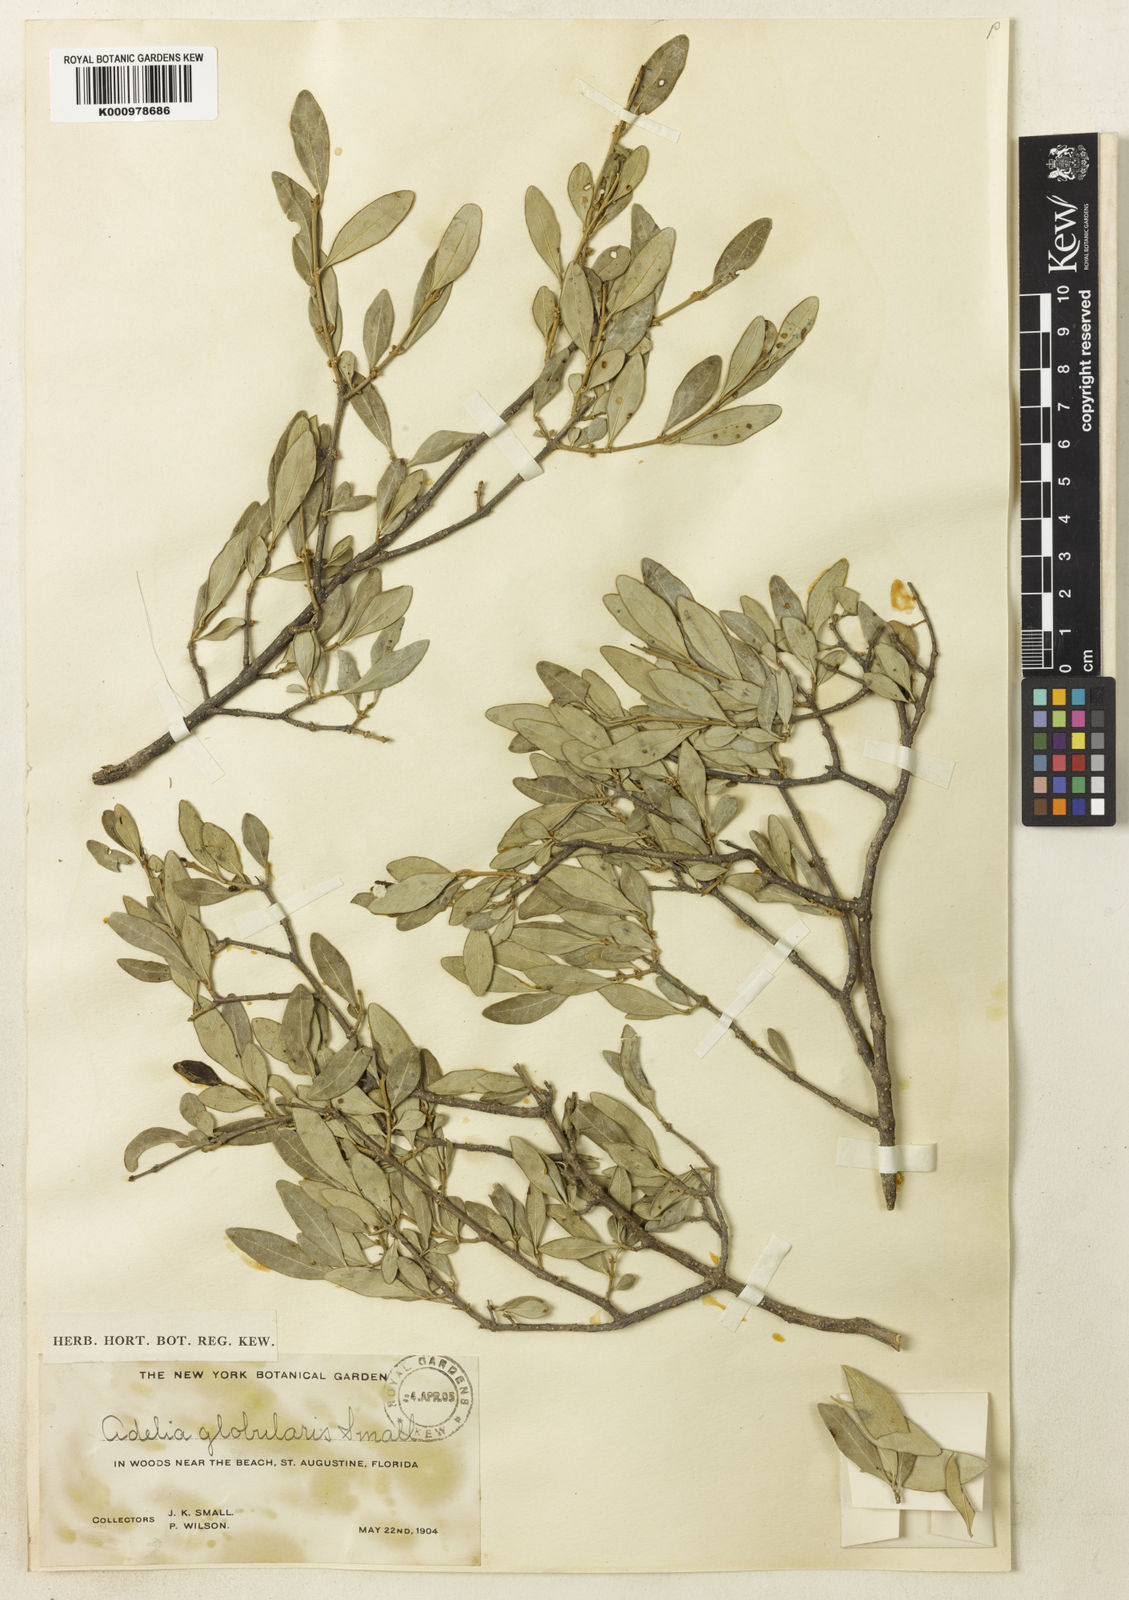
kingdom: Plantae
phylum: Tracheophyta
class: Magnoliopsida
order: Lamiales
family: Oleaceae
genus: Forestiera
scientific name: Forestiera segregata
